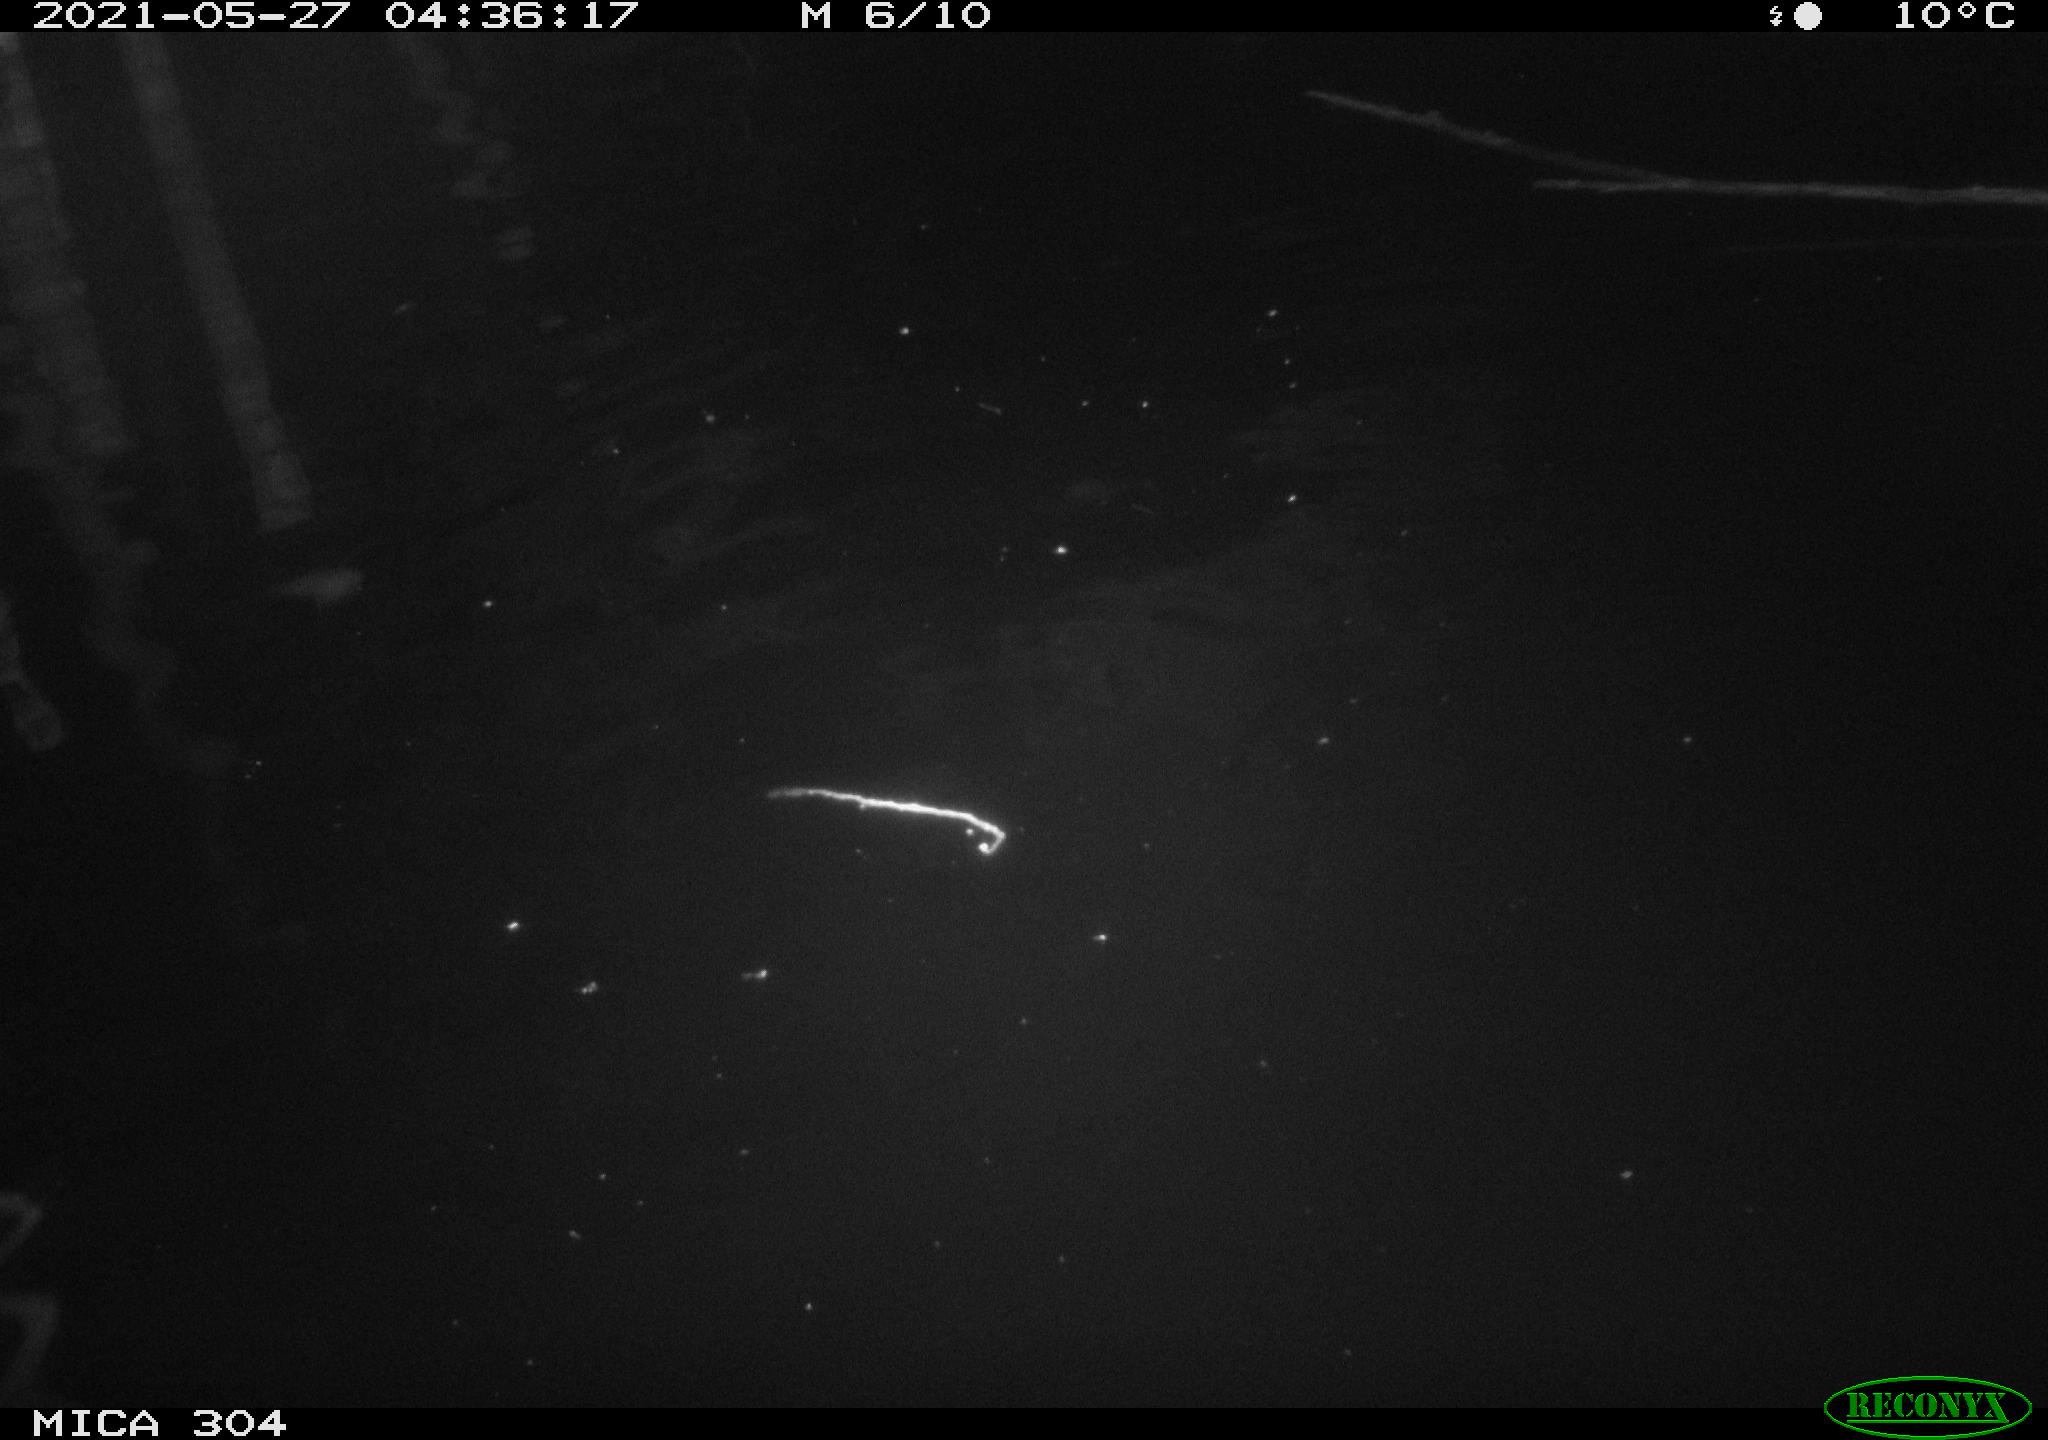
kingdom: Animalia
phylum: Chordata
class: Aves
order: Anseriformes
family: Anatidae
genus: Anas
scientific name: Anas platyrhynchos
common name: Mallard
